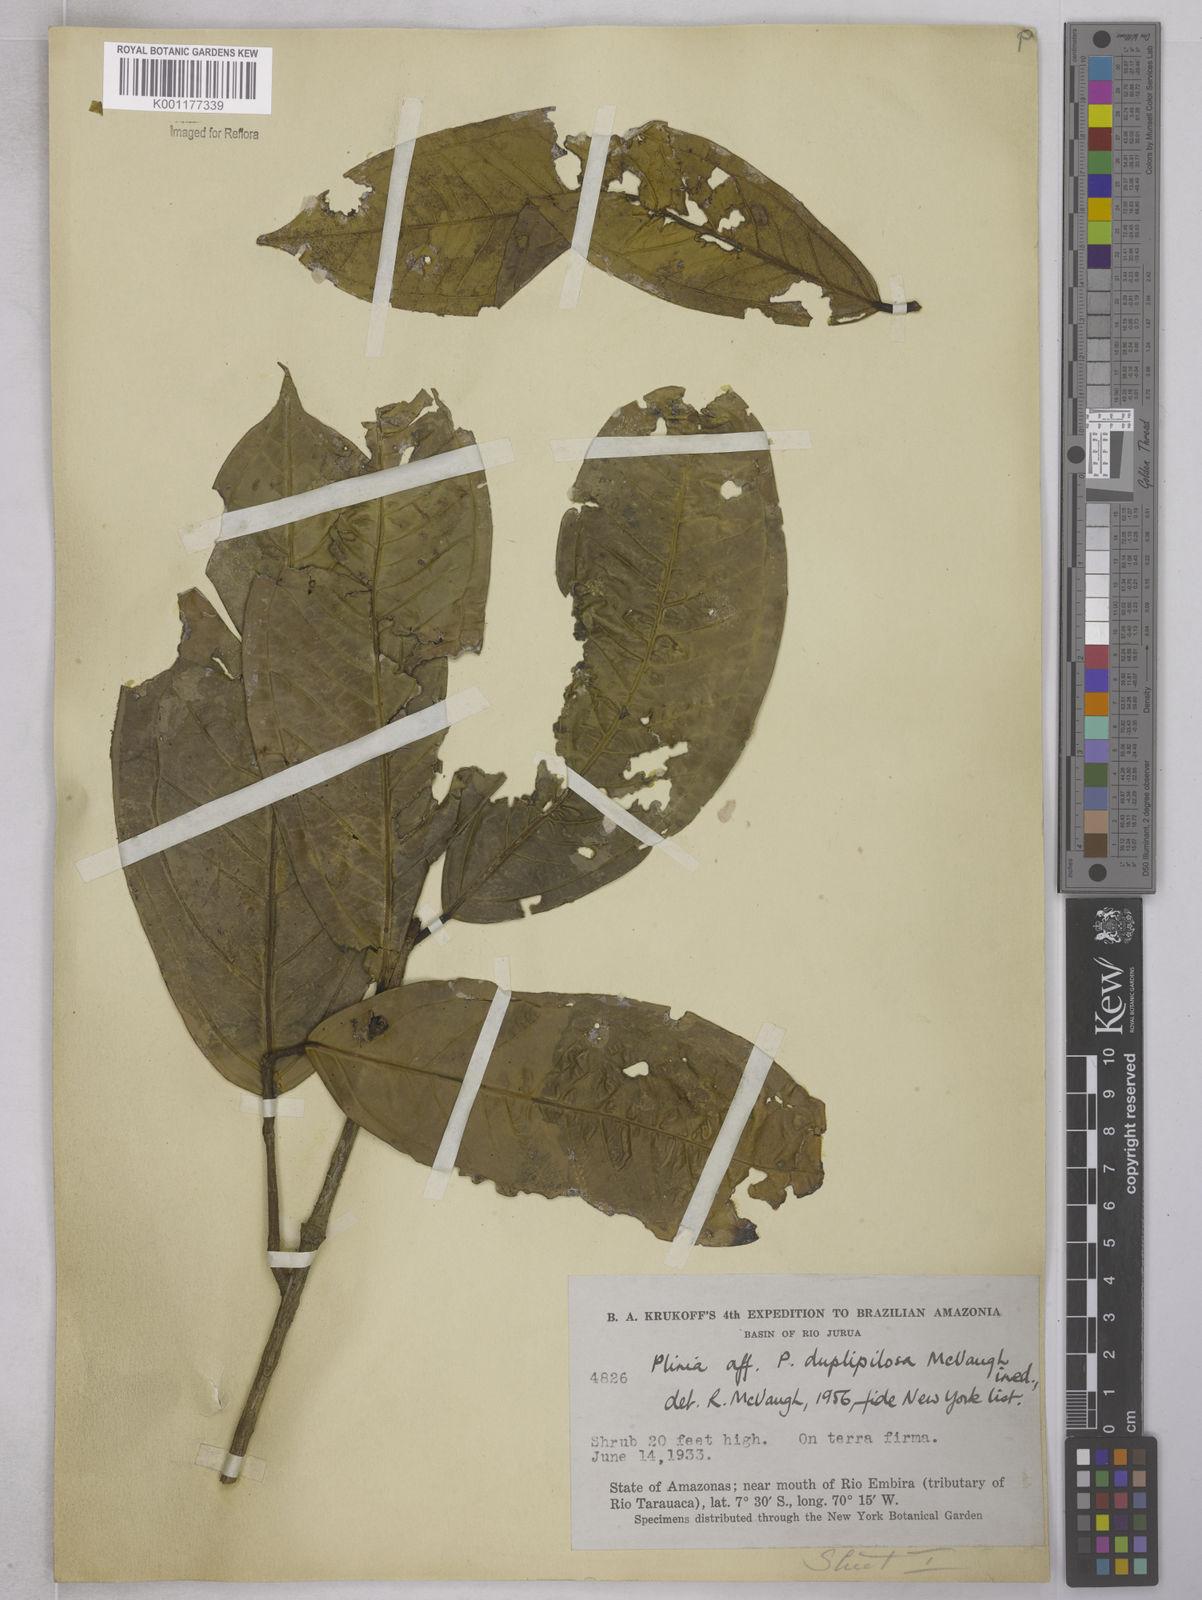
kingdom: Plantae
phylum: Tracheophyta
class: Magnoliopsida
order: Myrtales
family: Myrtaceae
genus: Plinia
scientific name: Plinia povedae
